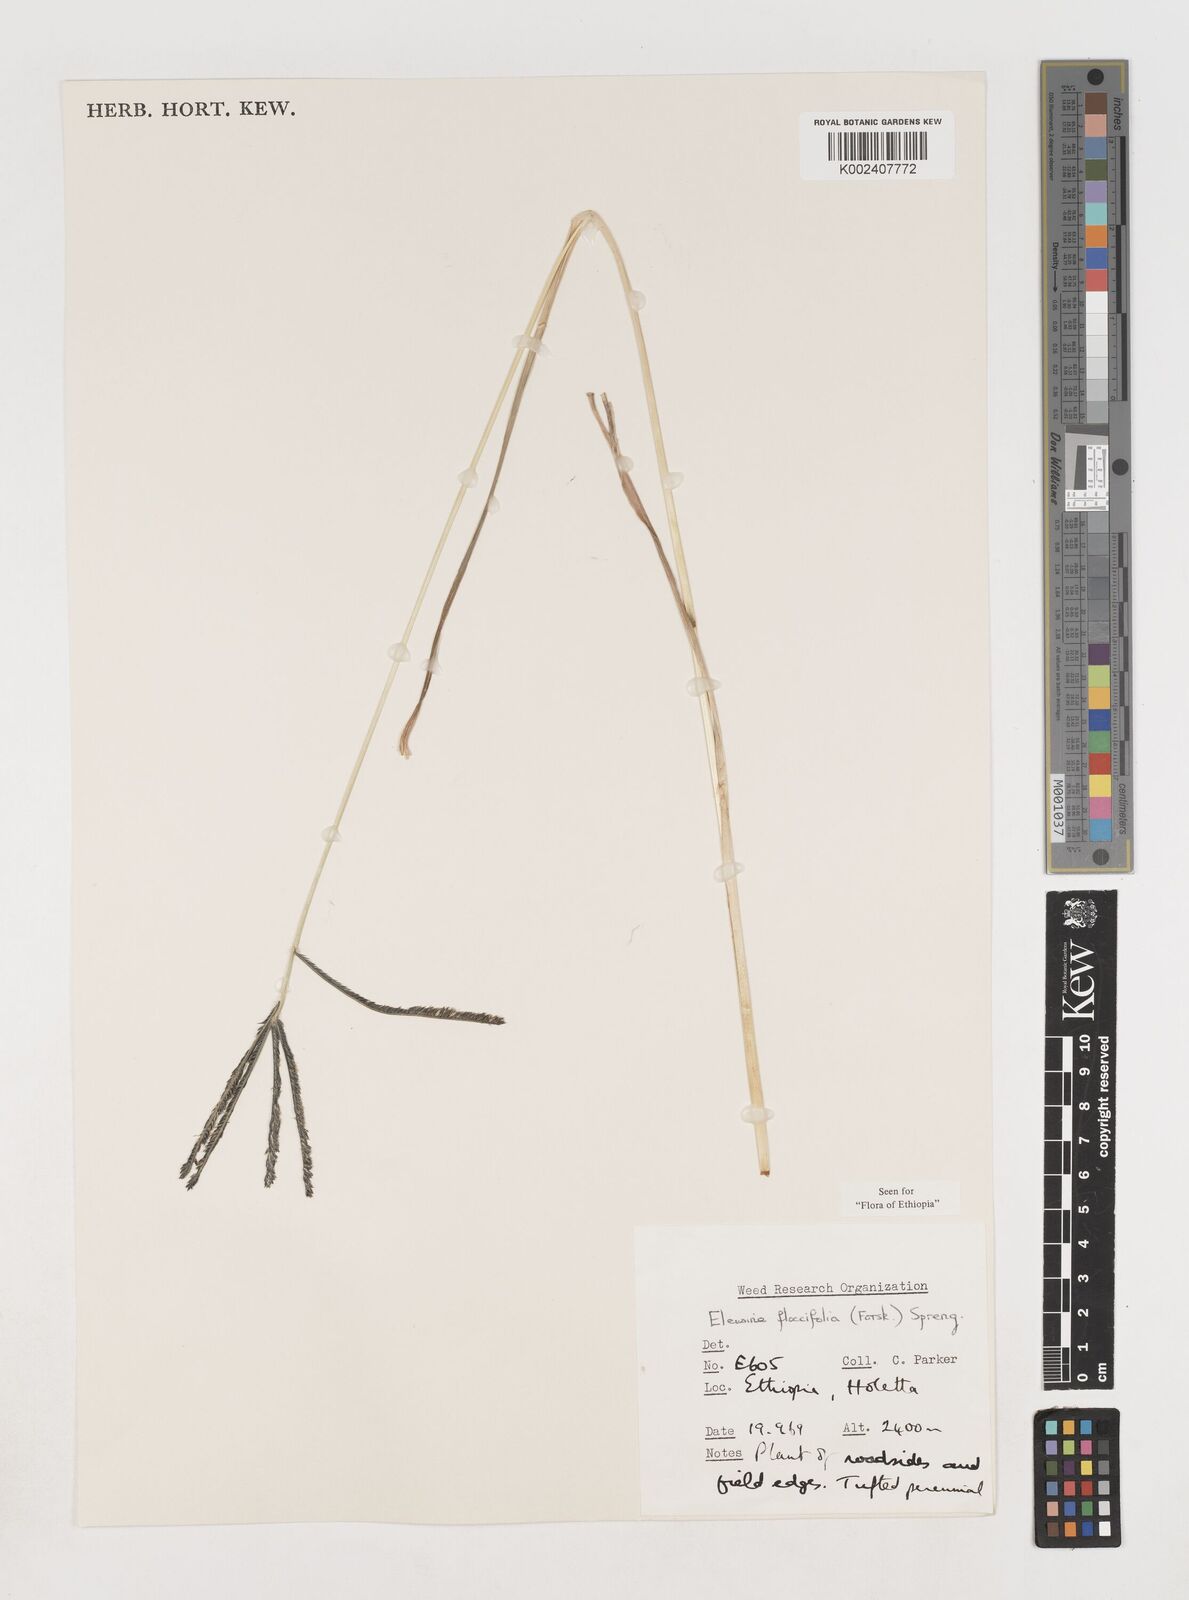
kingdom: Plantae
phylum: Tracheophyta
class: Liliopsida
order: Poales
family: Poaceae
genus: Eleusine
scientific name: Eleusine floccifolia
